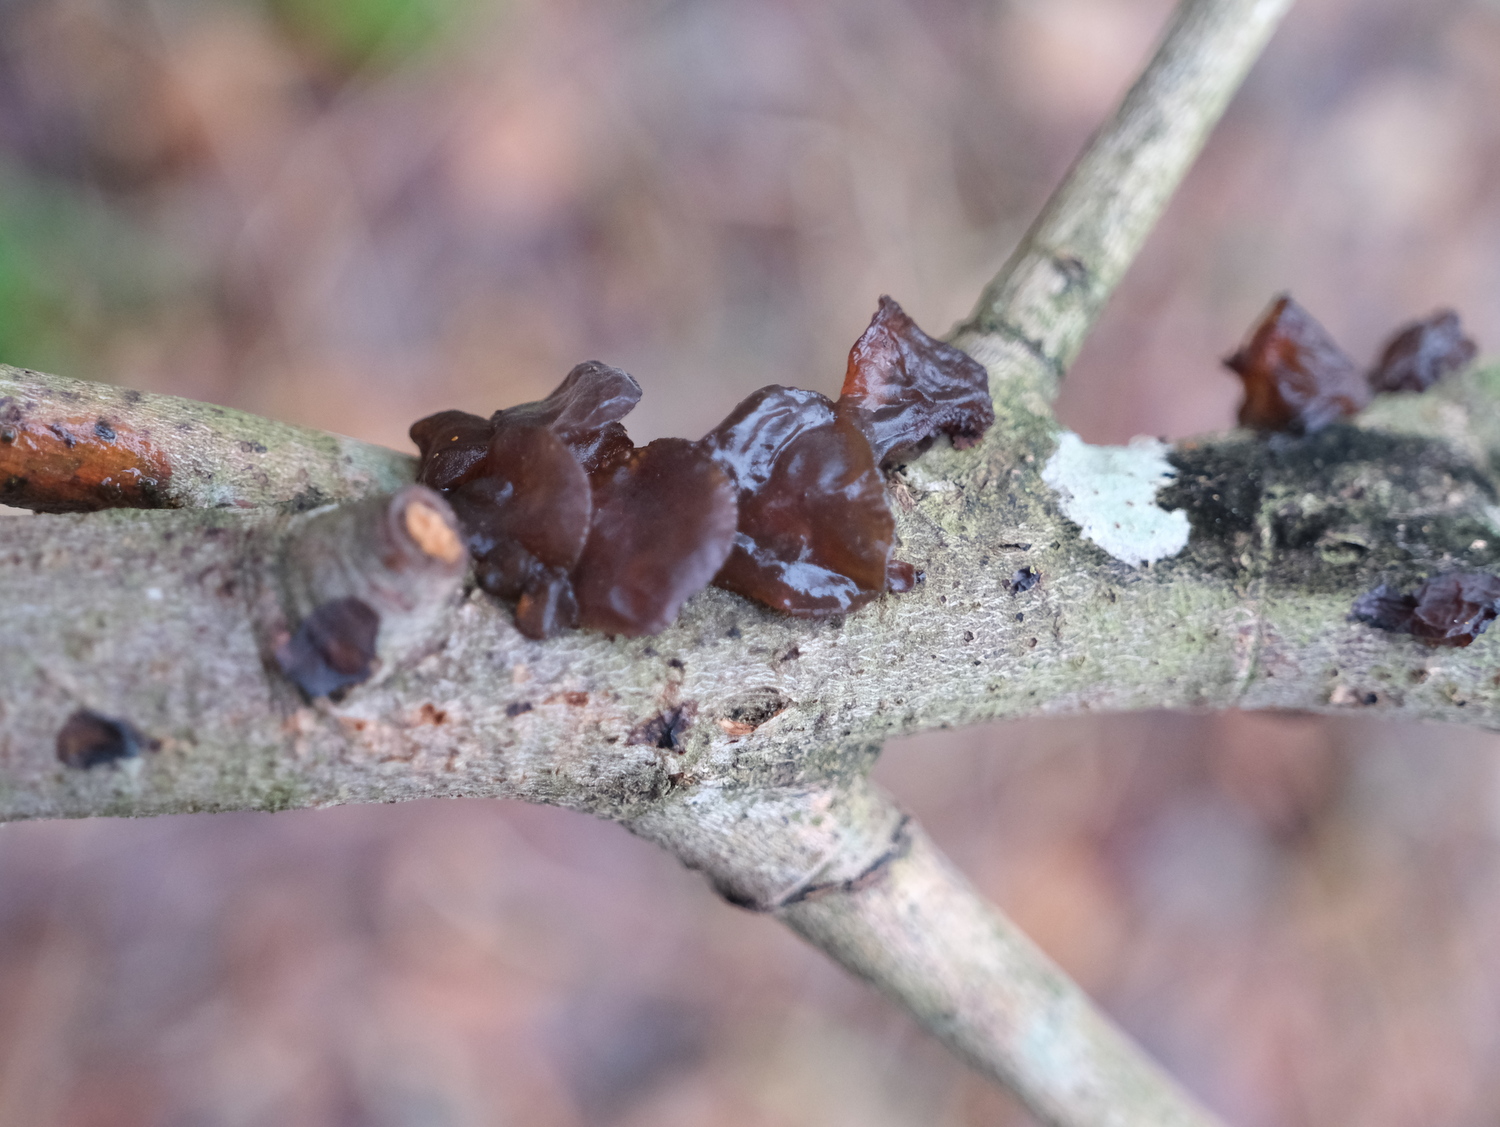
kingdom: Fungi
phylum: Basidiomycota
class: Agaricomycetes
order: Auriculariales
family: Auriculariaceae
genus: Exidia
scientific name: Exidia recisa
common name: pile-bævretop
